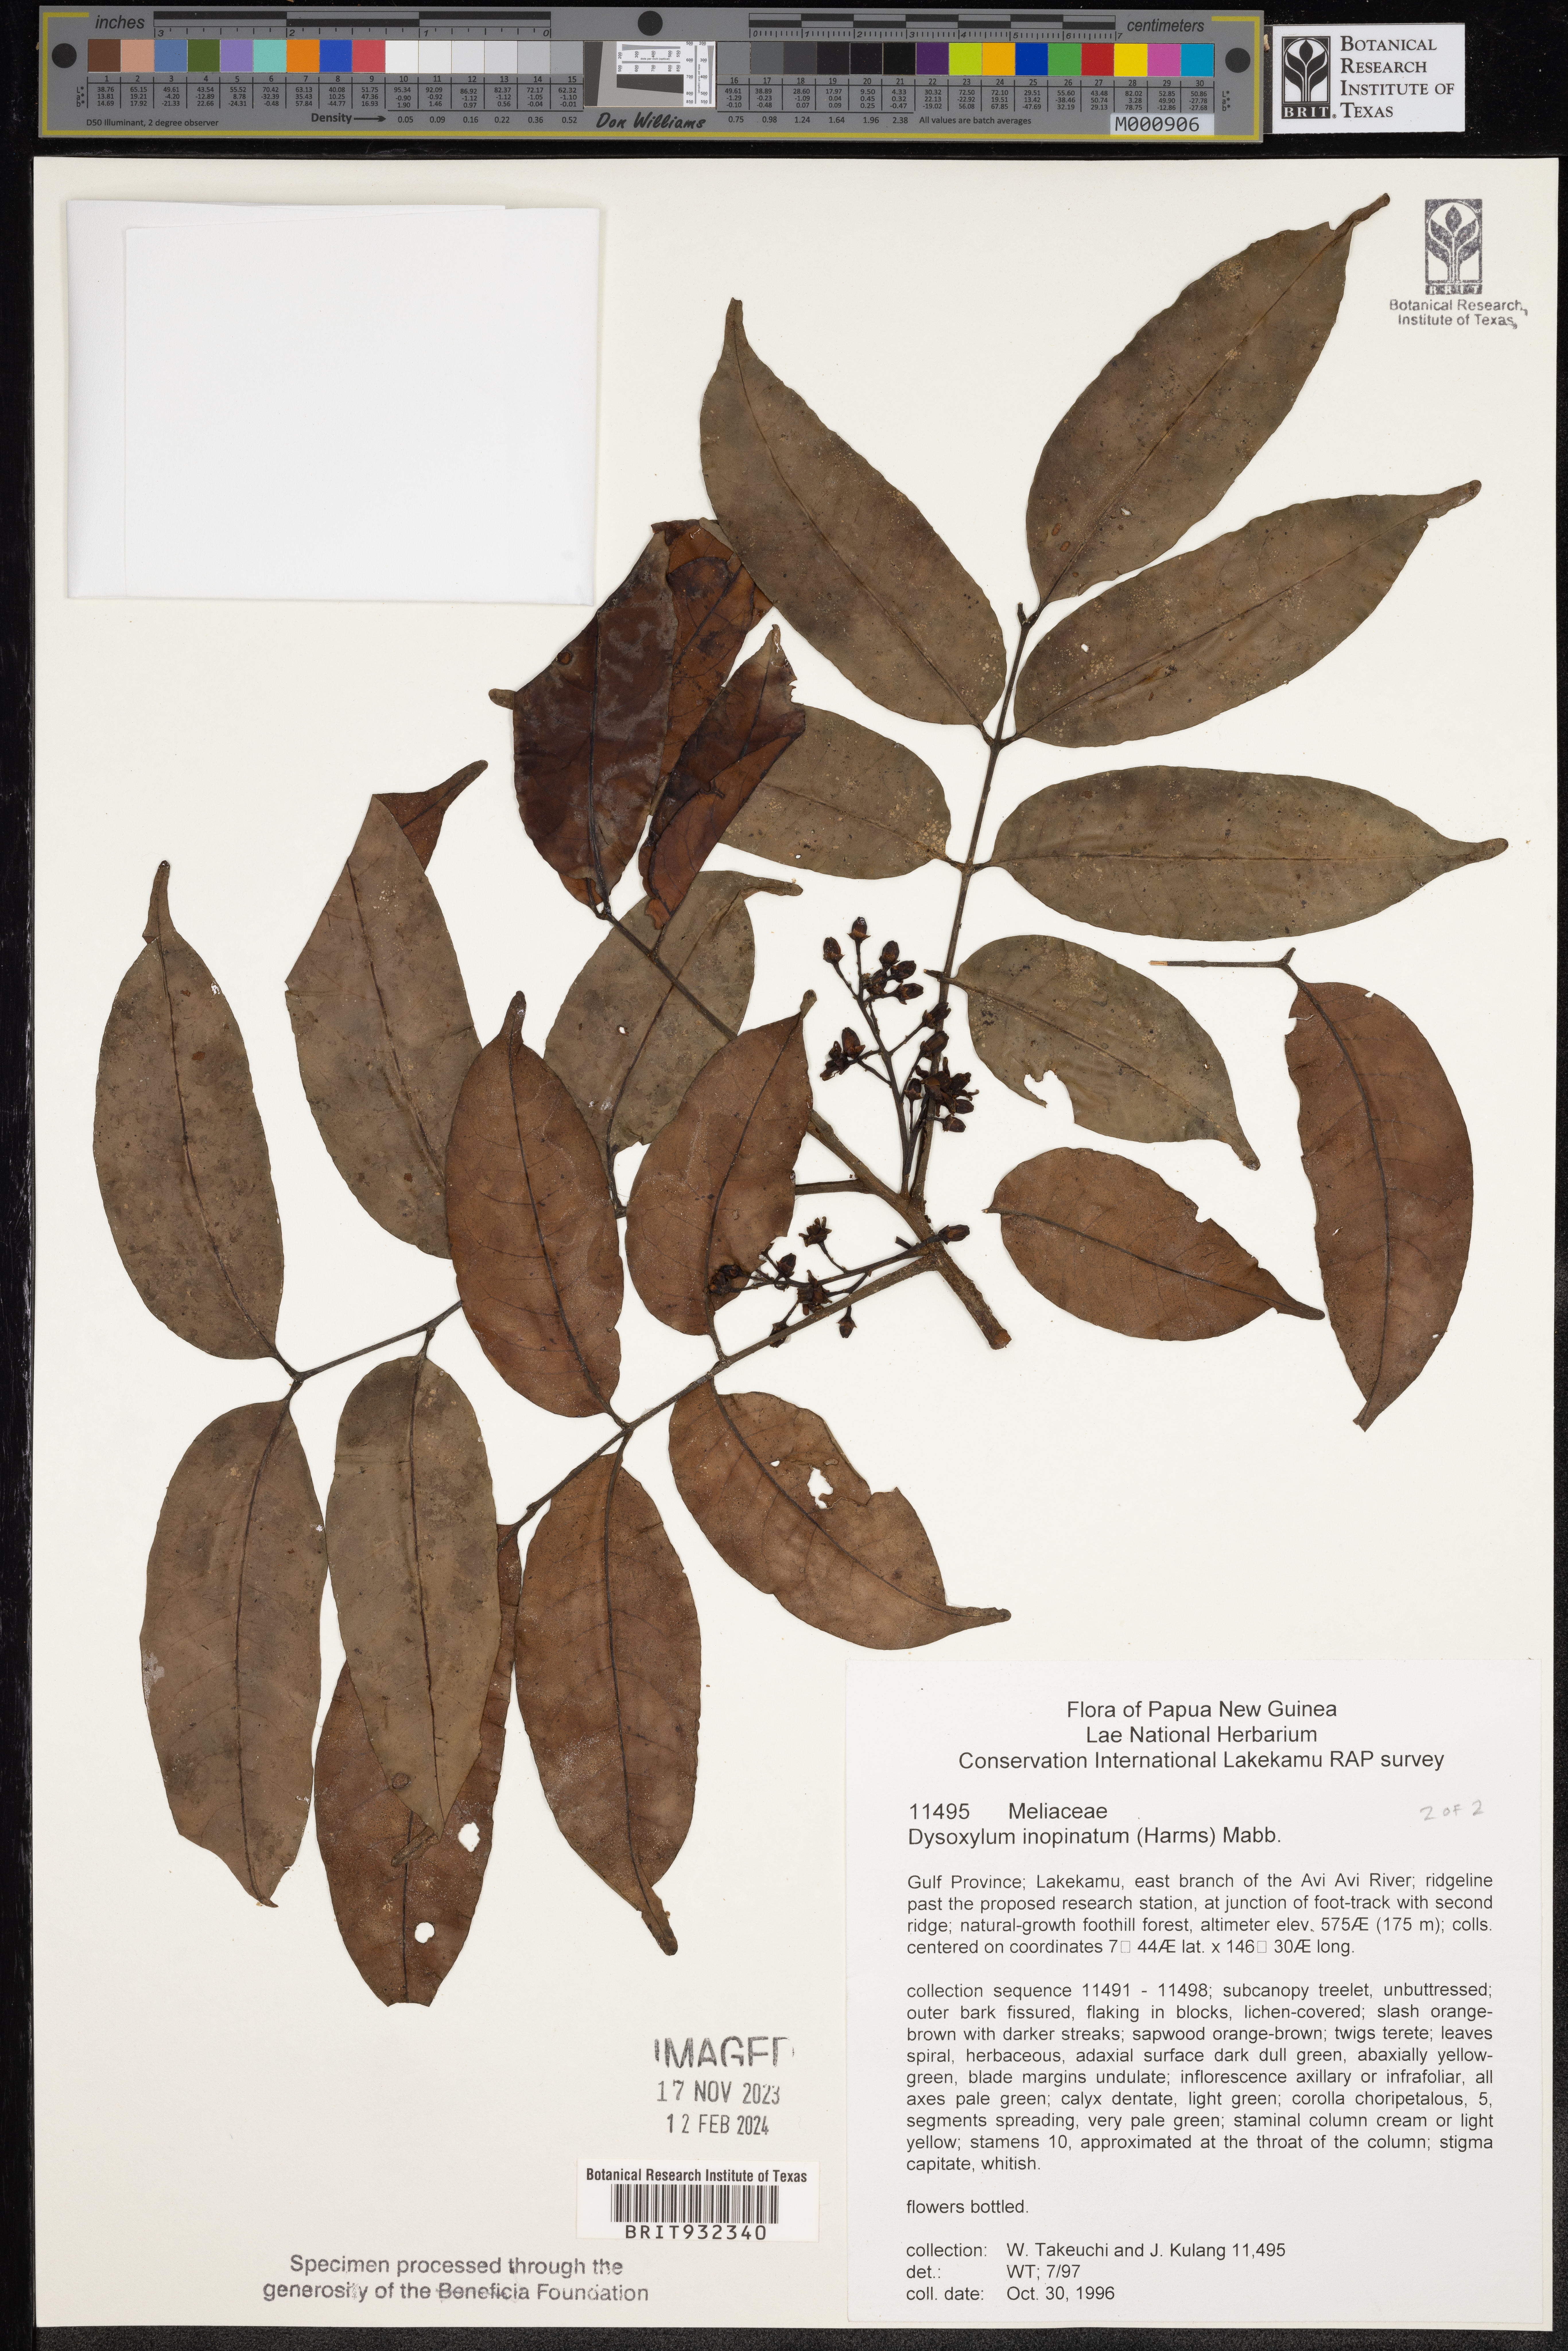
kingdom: Plantae
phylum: Tracheophyta
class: Magnoliopsida
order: Sapindales
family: Meliaceae
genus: Dysoxylum
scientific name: Dysoxylum
